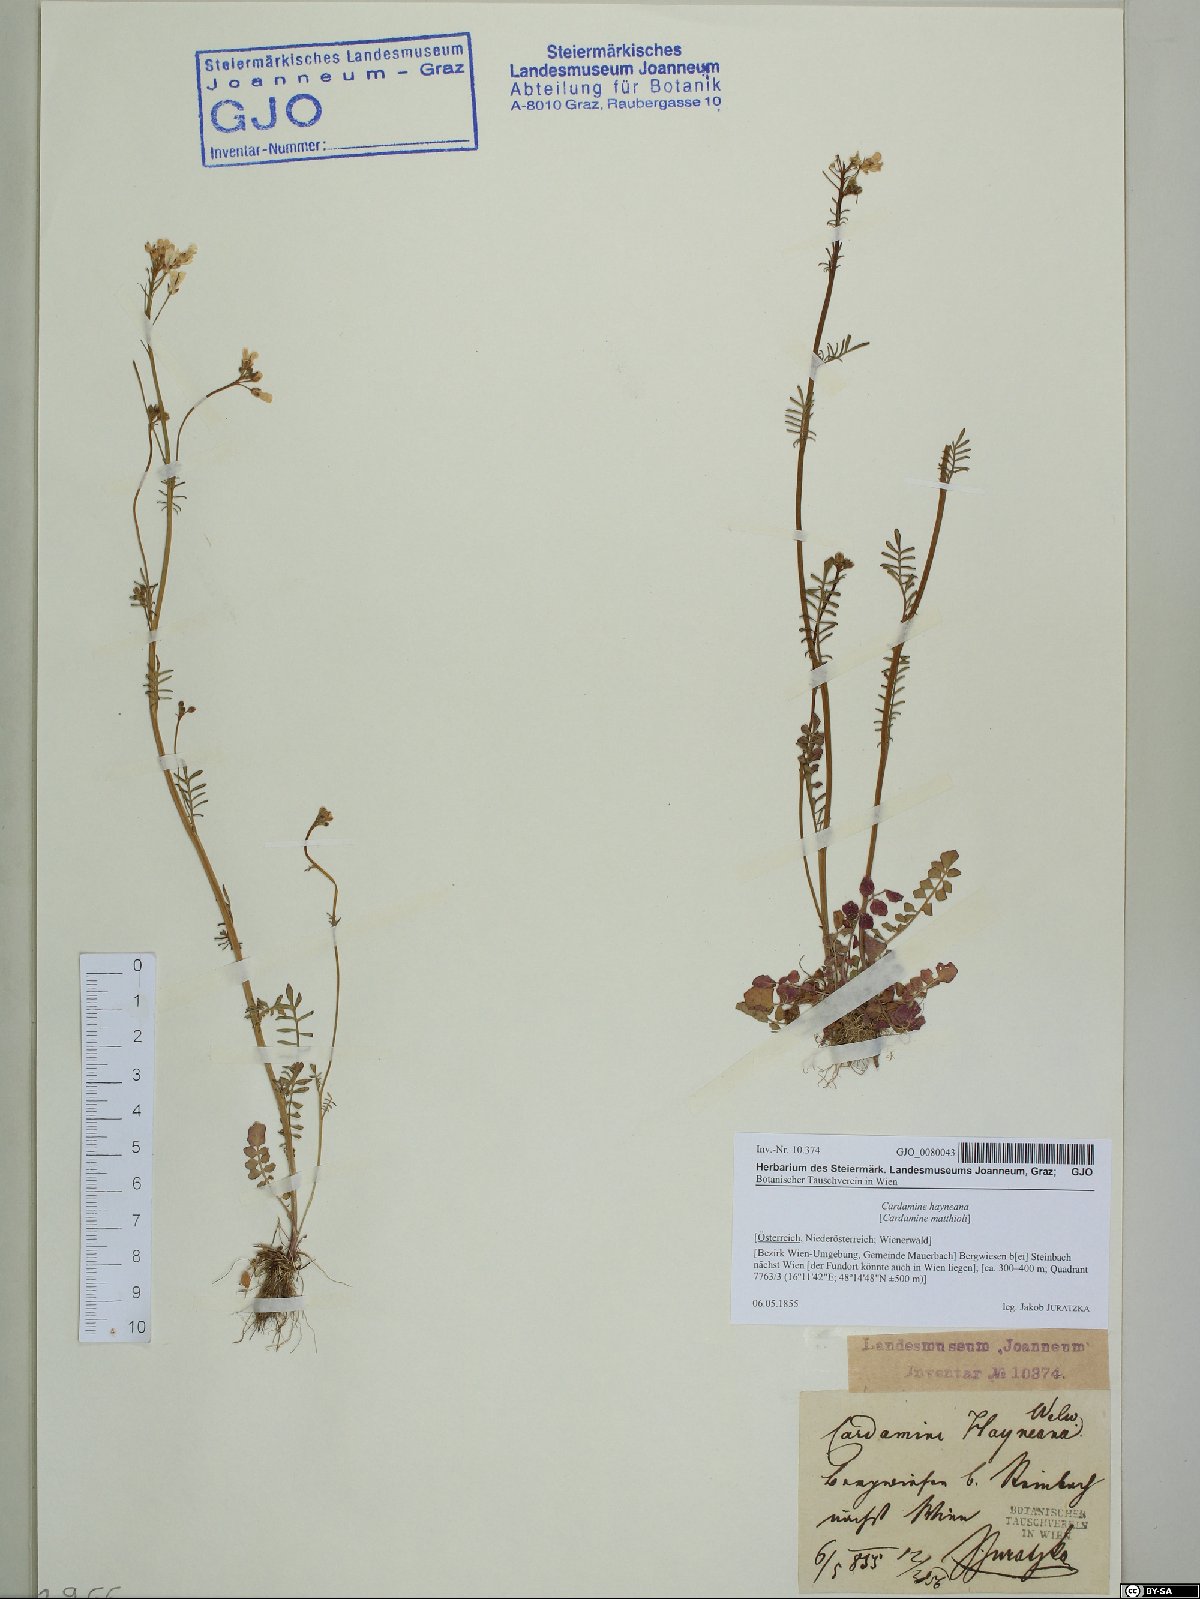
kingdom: Plantae
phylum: Tracheophyta
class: Magnoliopsida
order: Brassicales
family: Brassicaceae
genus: Cardamine
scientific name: Cardamine matthioli
